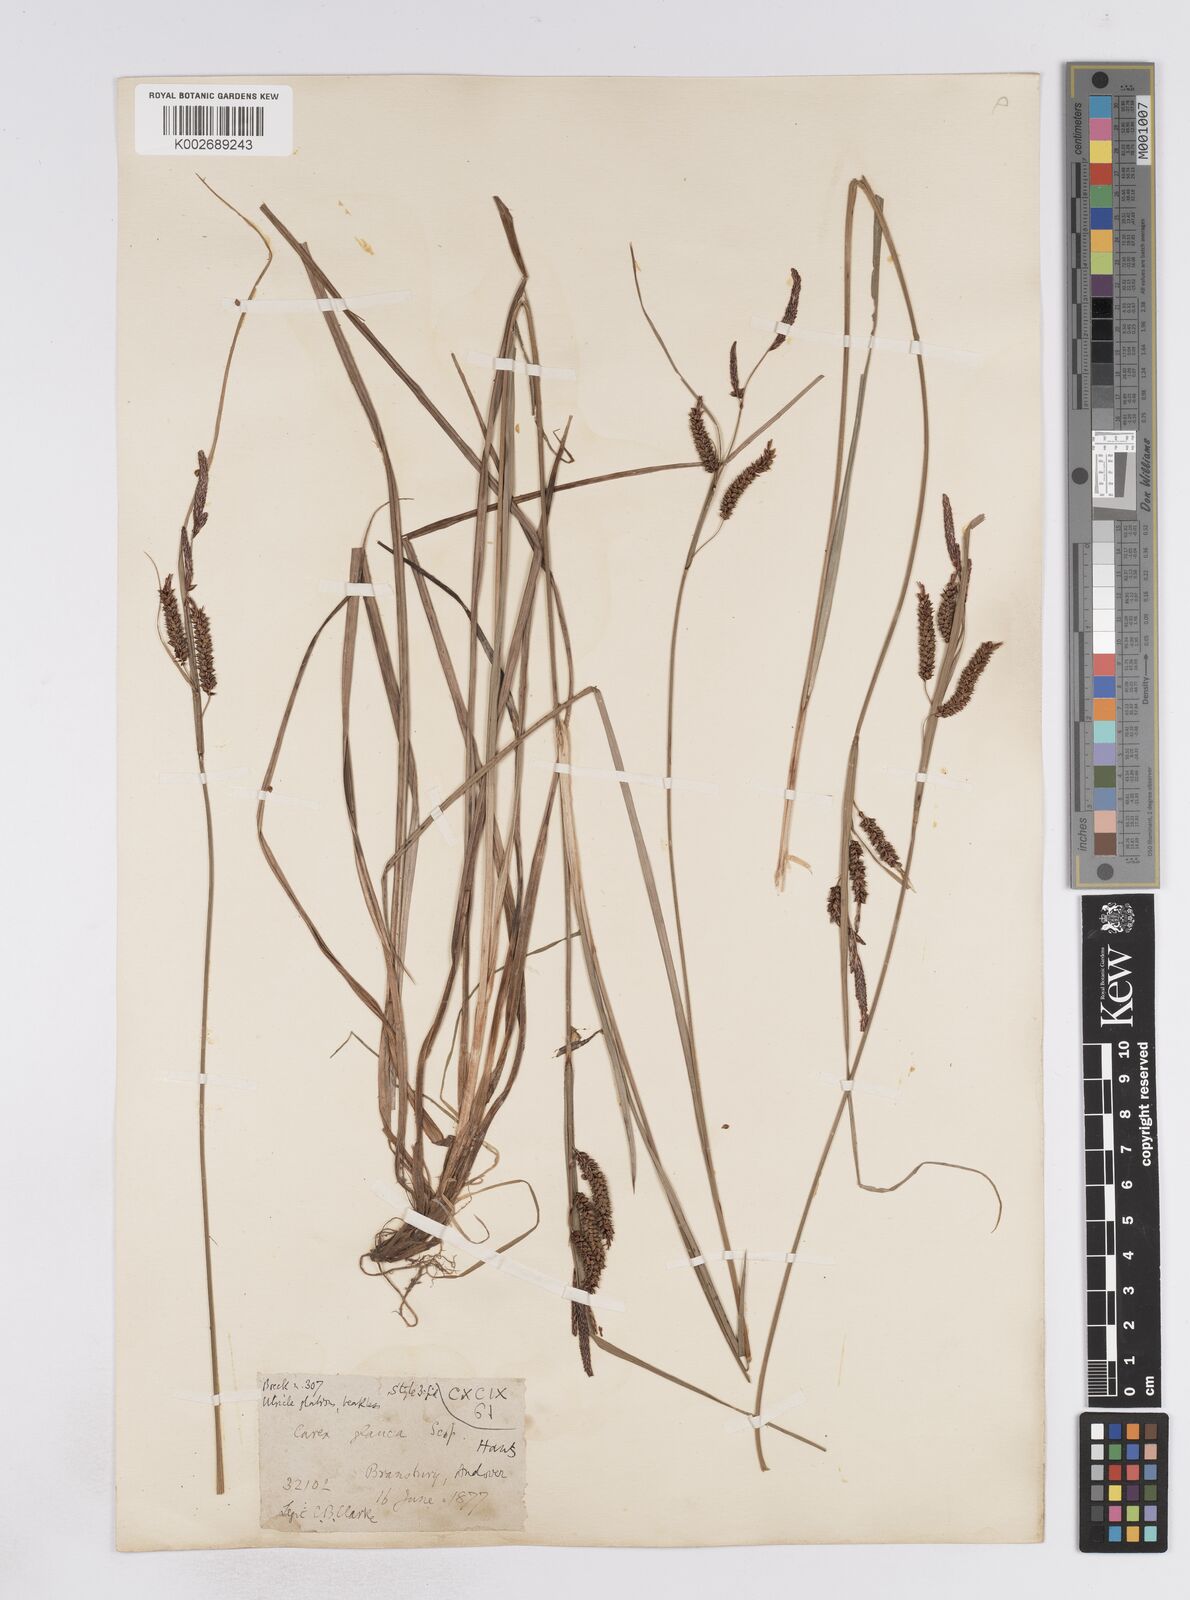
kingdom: Plantae
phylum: Tracheophyta
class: Liliopsida
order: Poales
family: Cyperaceae
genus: Carex
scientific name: Carex flacca
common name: Glaucous sedge
